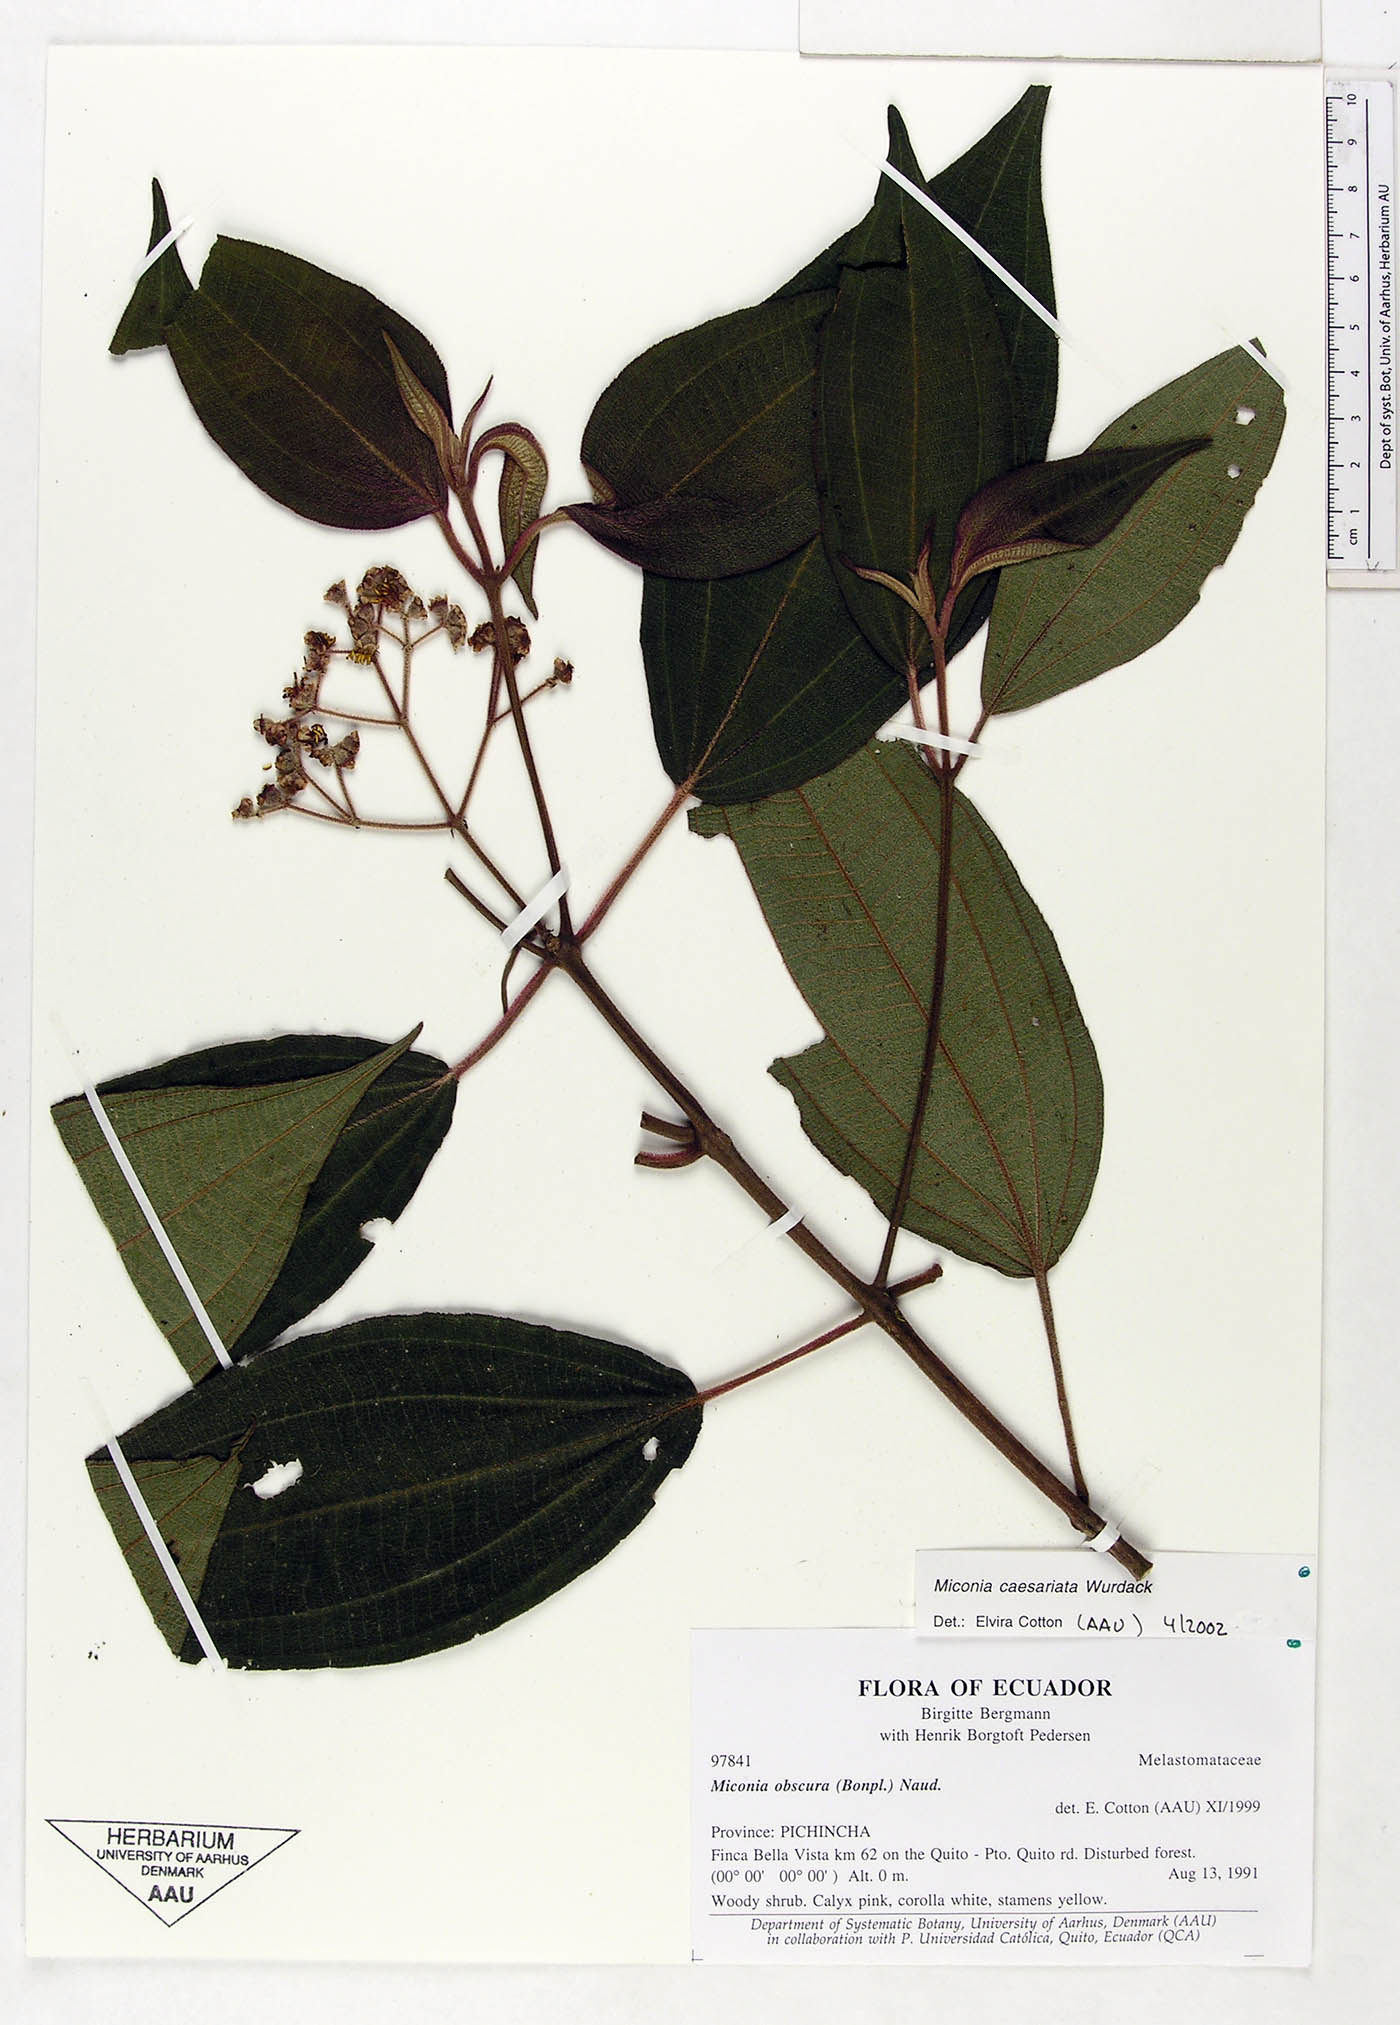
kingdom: Plantae
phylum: Tracheophyta
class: Magnoliopsida
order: Myrtales
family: Melastomataceae
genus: Miconia
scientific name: Miconia caesariata
